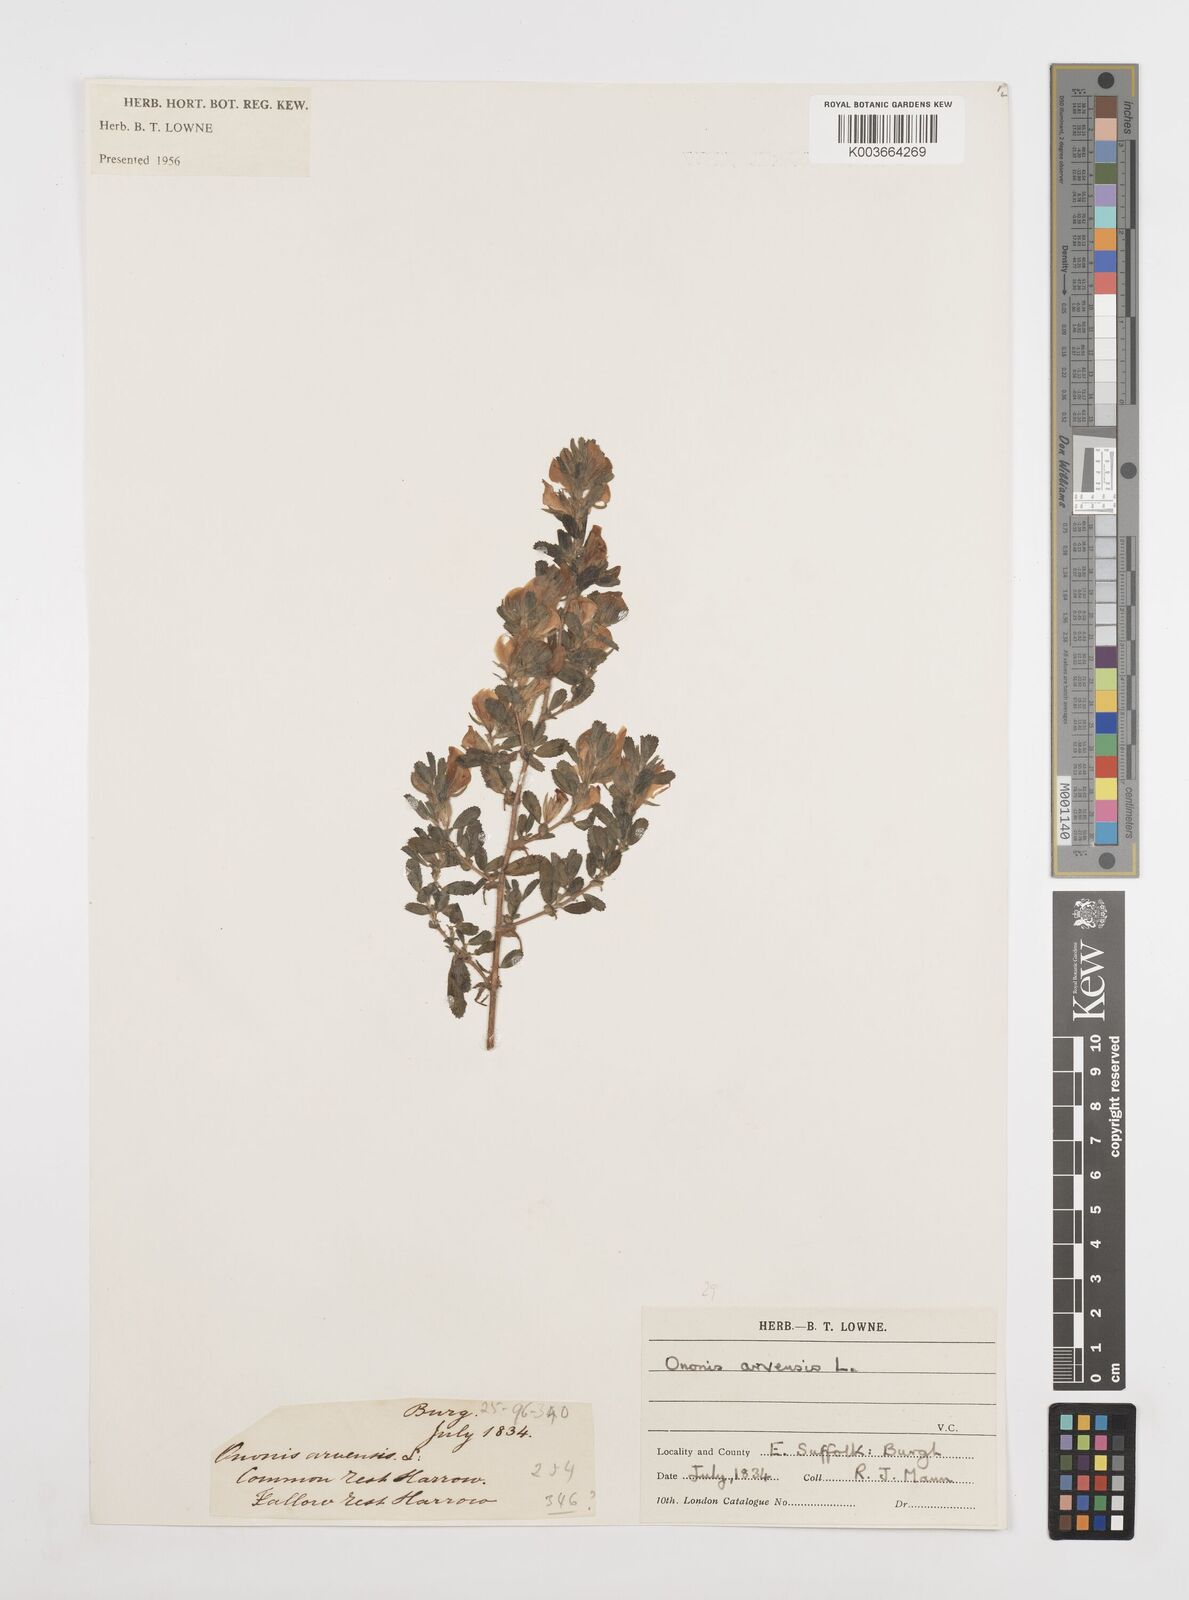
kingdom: Plantae
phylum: Tracheophyta
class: Magnoliopsida
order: Fabales
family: Fabaceae
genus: Ononis
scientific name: Ononis spinosa
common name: Spiny restharrow
